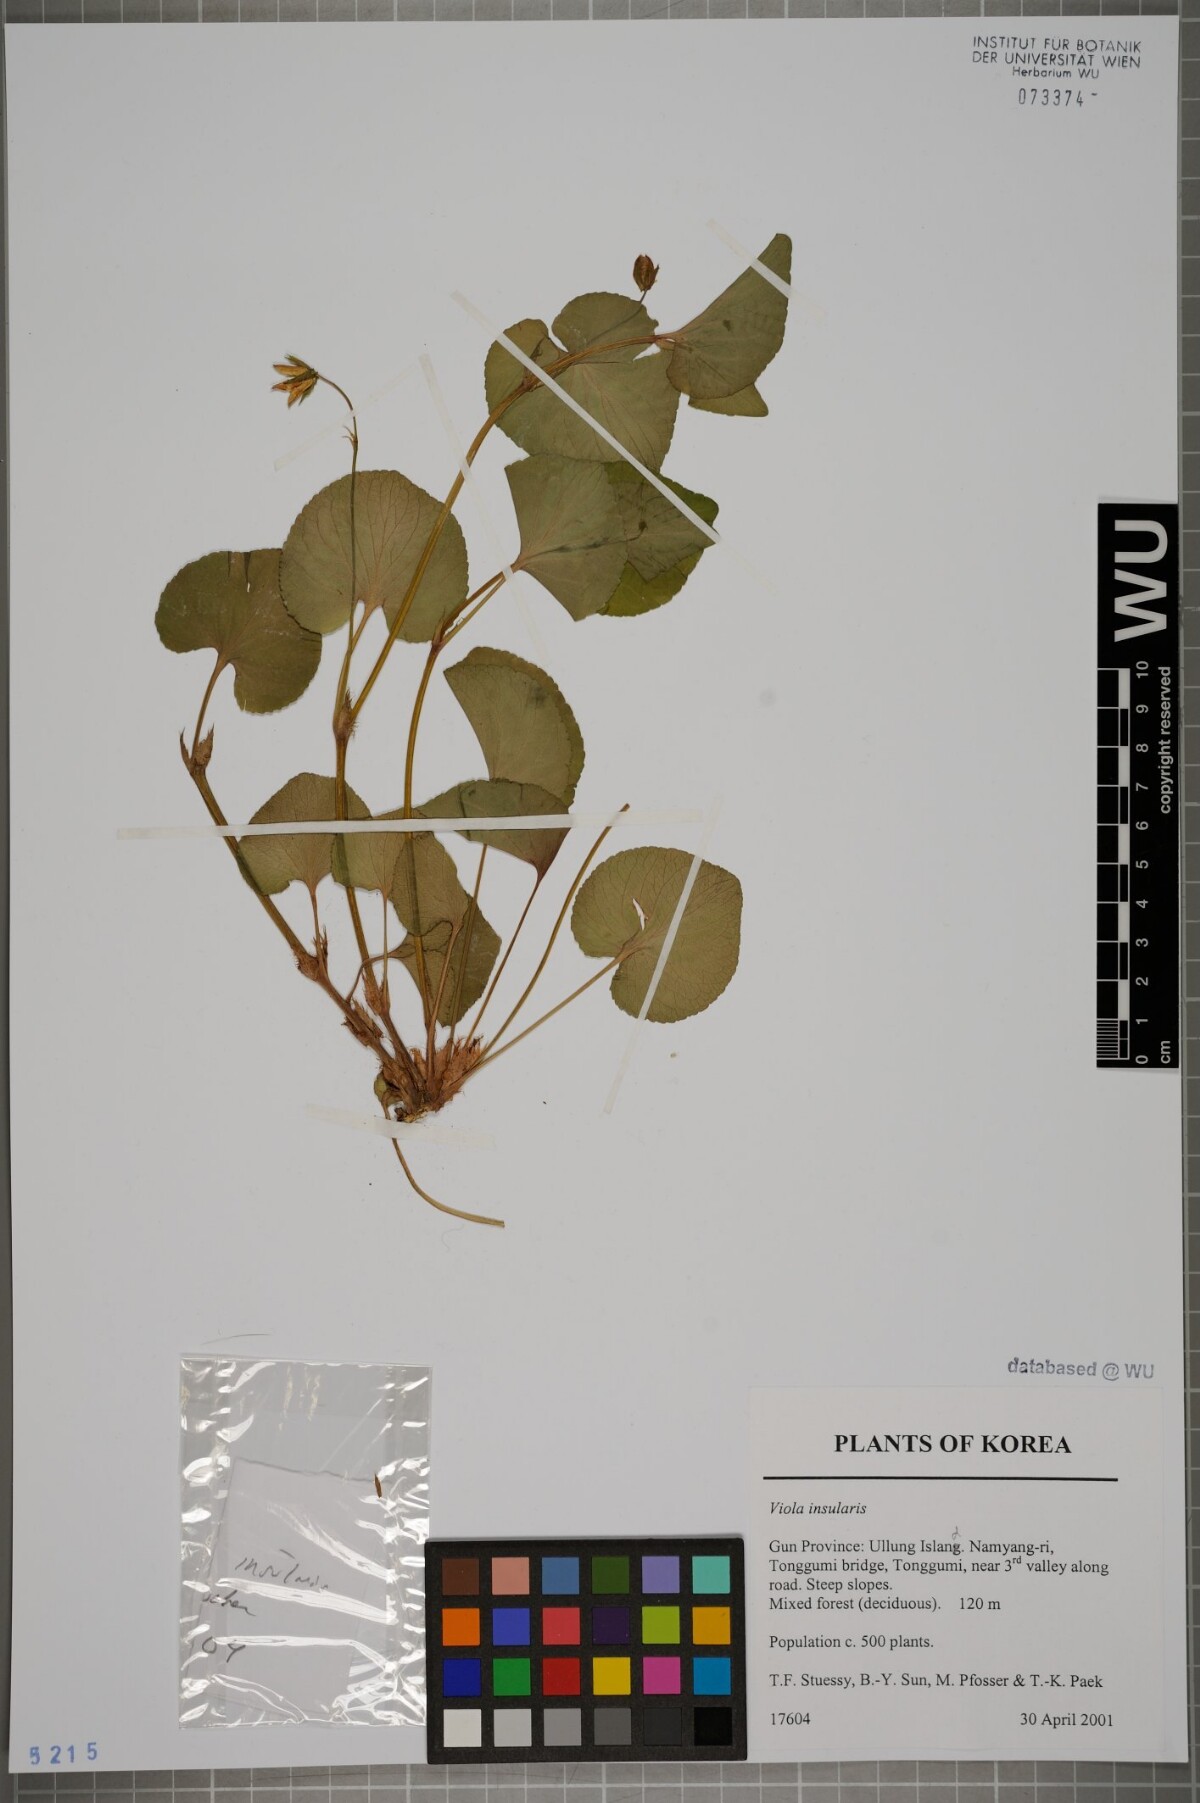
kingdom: Plantae
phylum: Tracheophyta
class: Magnoliopsida
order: Malpighiales
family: Violaceae
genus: Viola
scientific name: Viola kusanoana
